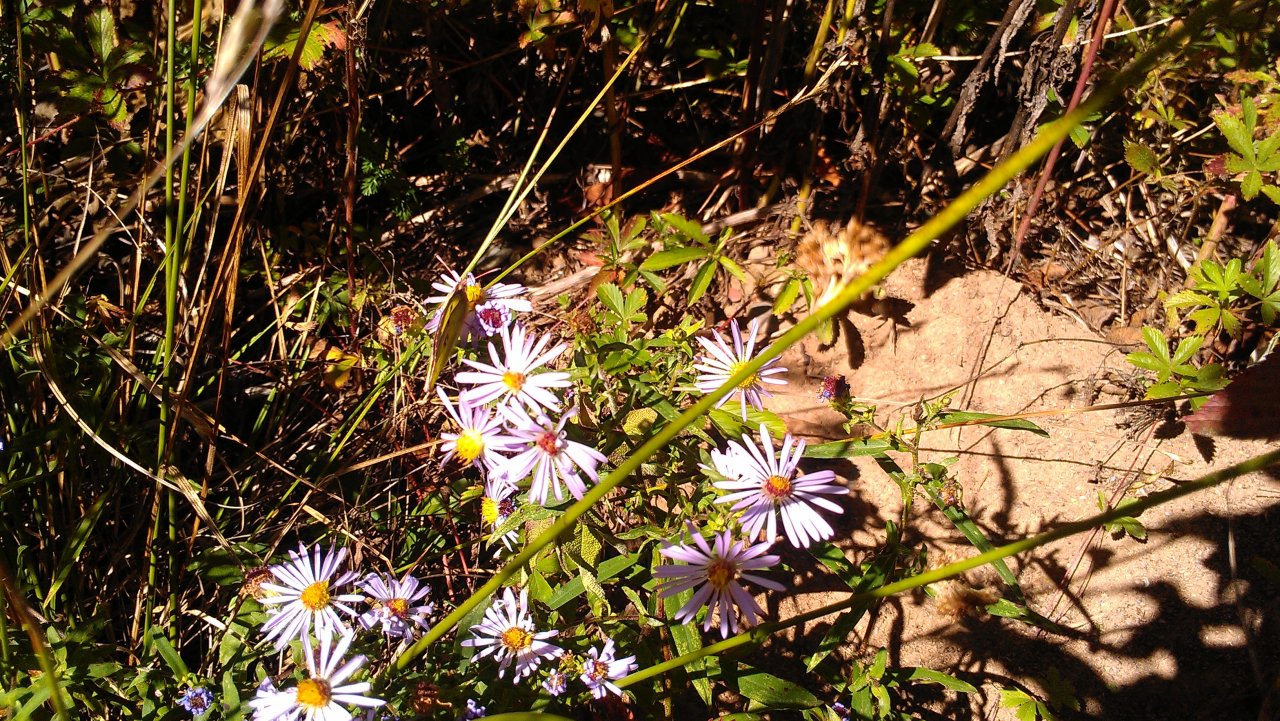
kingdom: Animalia
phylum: Arthropoda
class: Insecta
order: Lepidoptera
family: Pieridae
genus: Colias
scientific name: Colias philodice
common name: Clouded Sulphur
